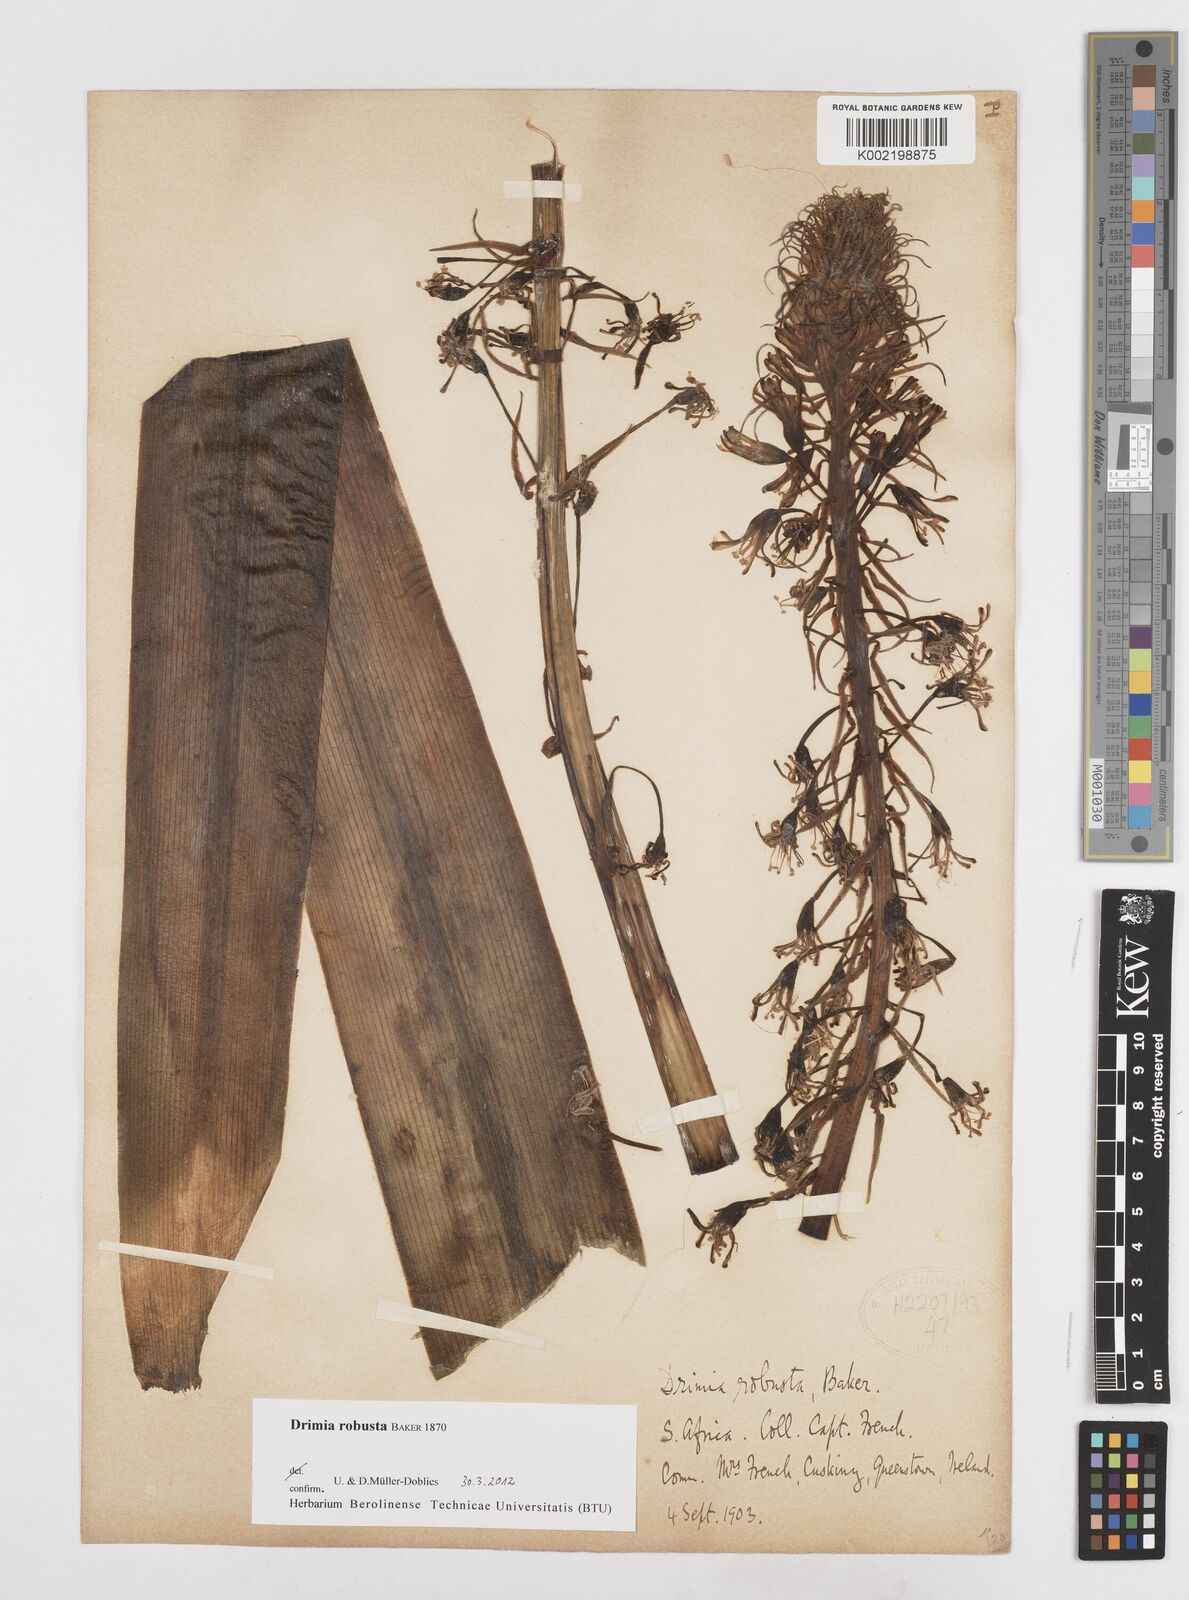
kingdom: Plantae
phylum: Tracheophyta
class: Liliopsida
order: Asparagales
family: Asparagaceae
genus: Drimia
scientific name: Drimia elata
